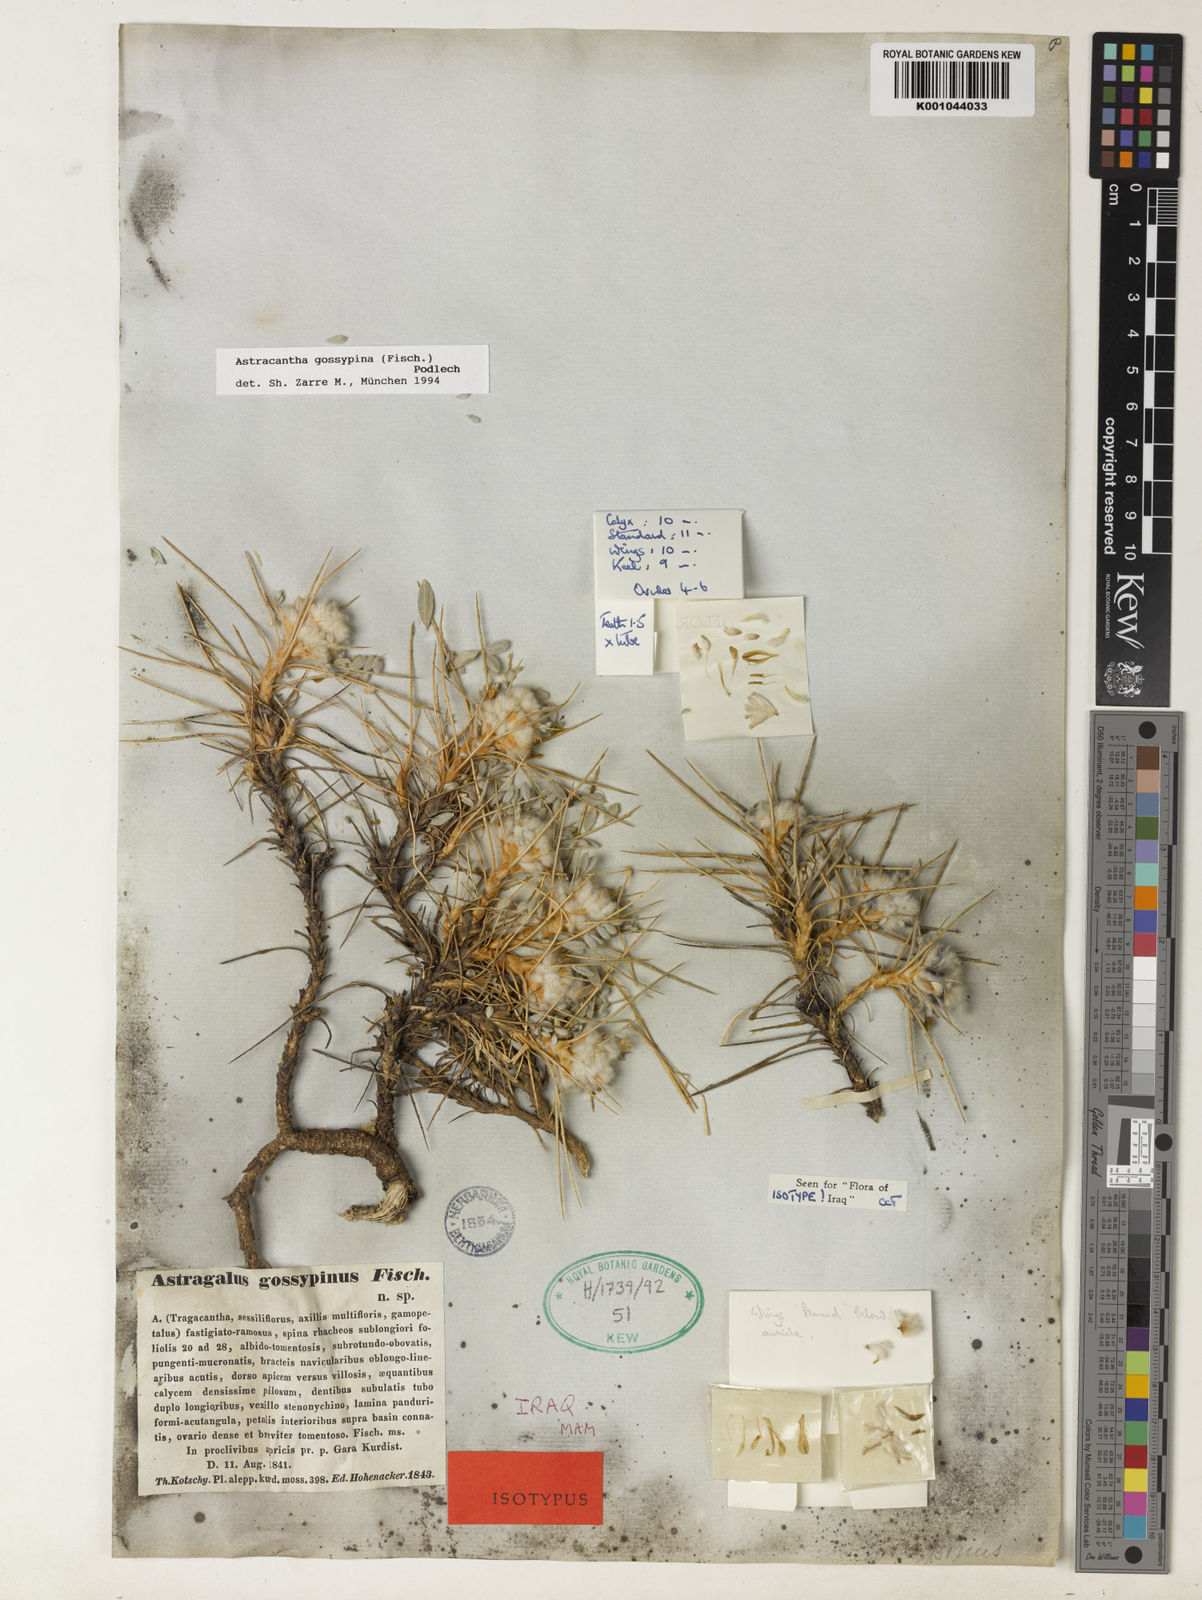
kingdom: Plantae
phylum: Tracheophyta
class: Magnoliopsida
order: Fabales
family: Fabaceae
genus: Astragalus
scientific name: Astragalus gossypinus
